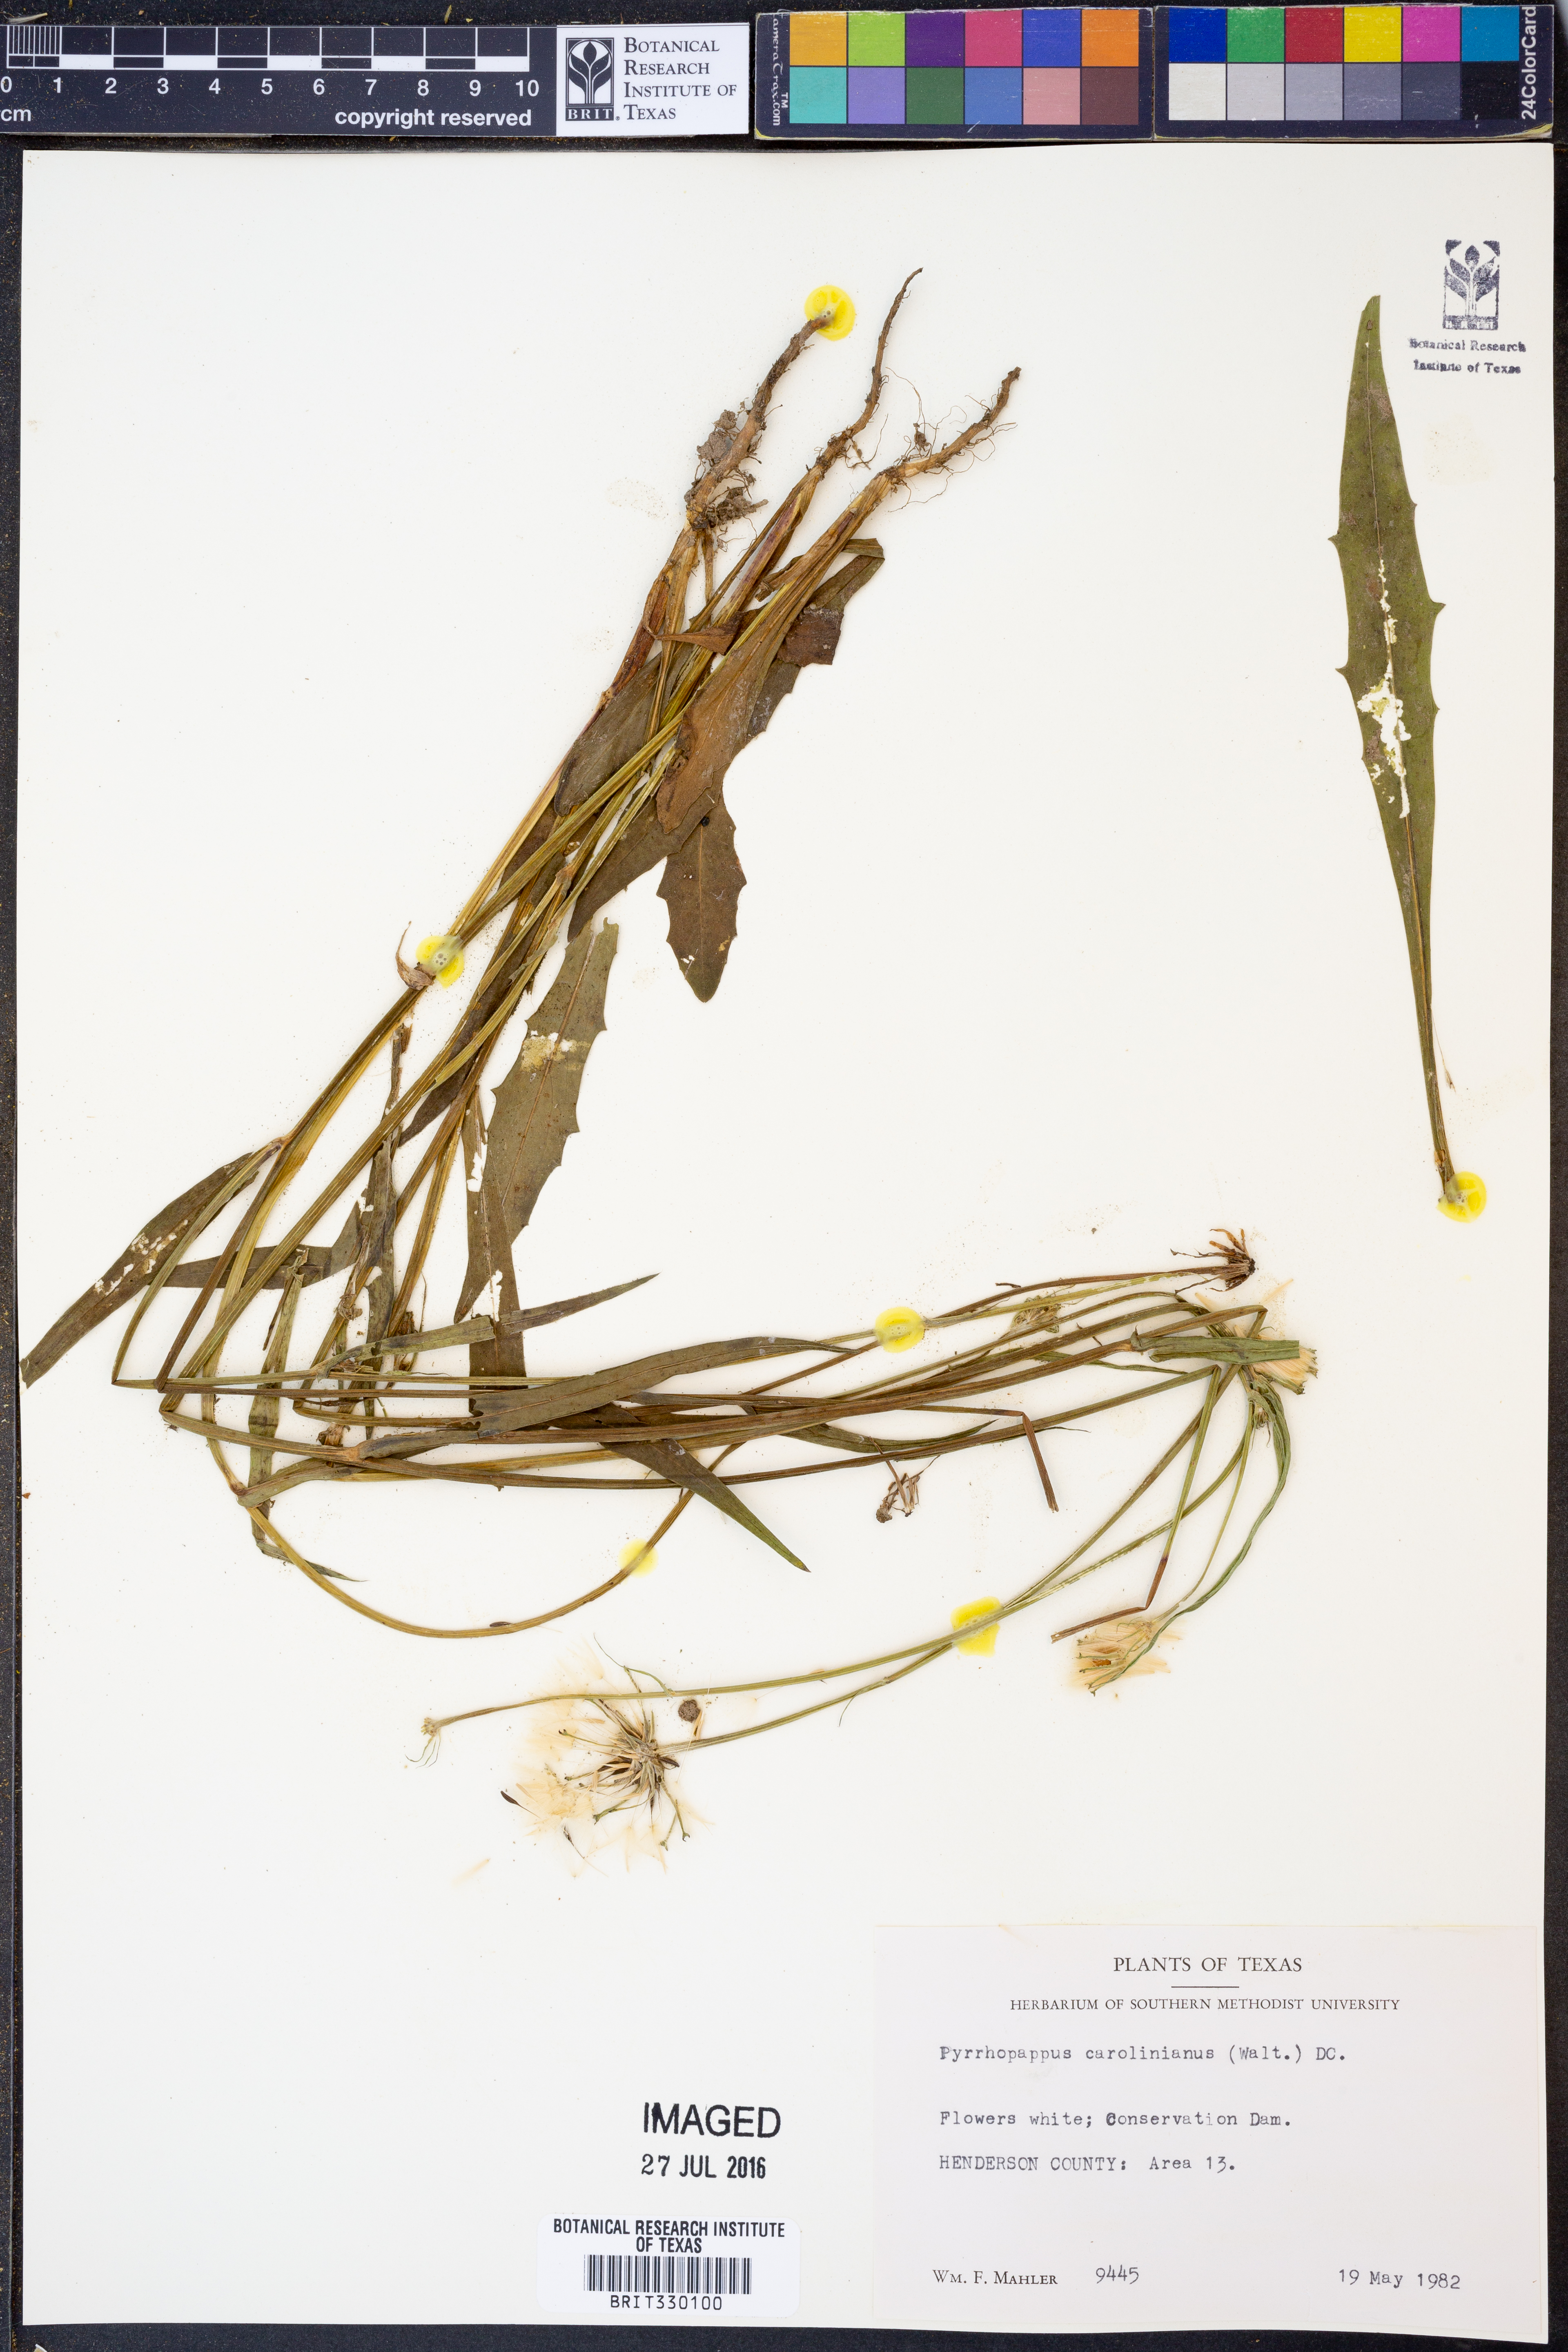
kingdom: Plantae
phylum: Tracheophyta
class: Magnoliopsida
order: Asterales
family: Asteraceae
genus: Pyrrhopappus
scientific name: Pyrrhopappus carolinianus
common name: Carolina desert-chicory
